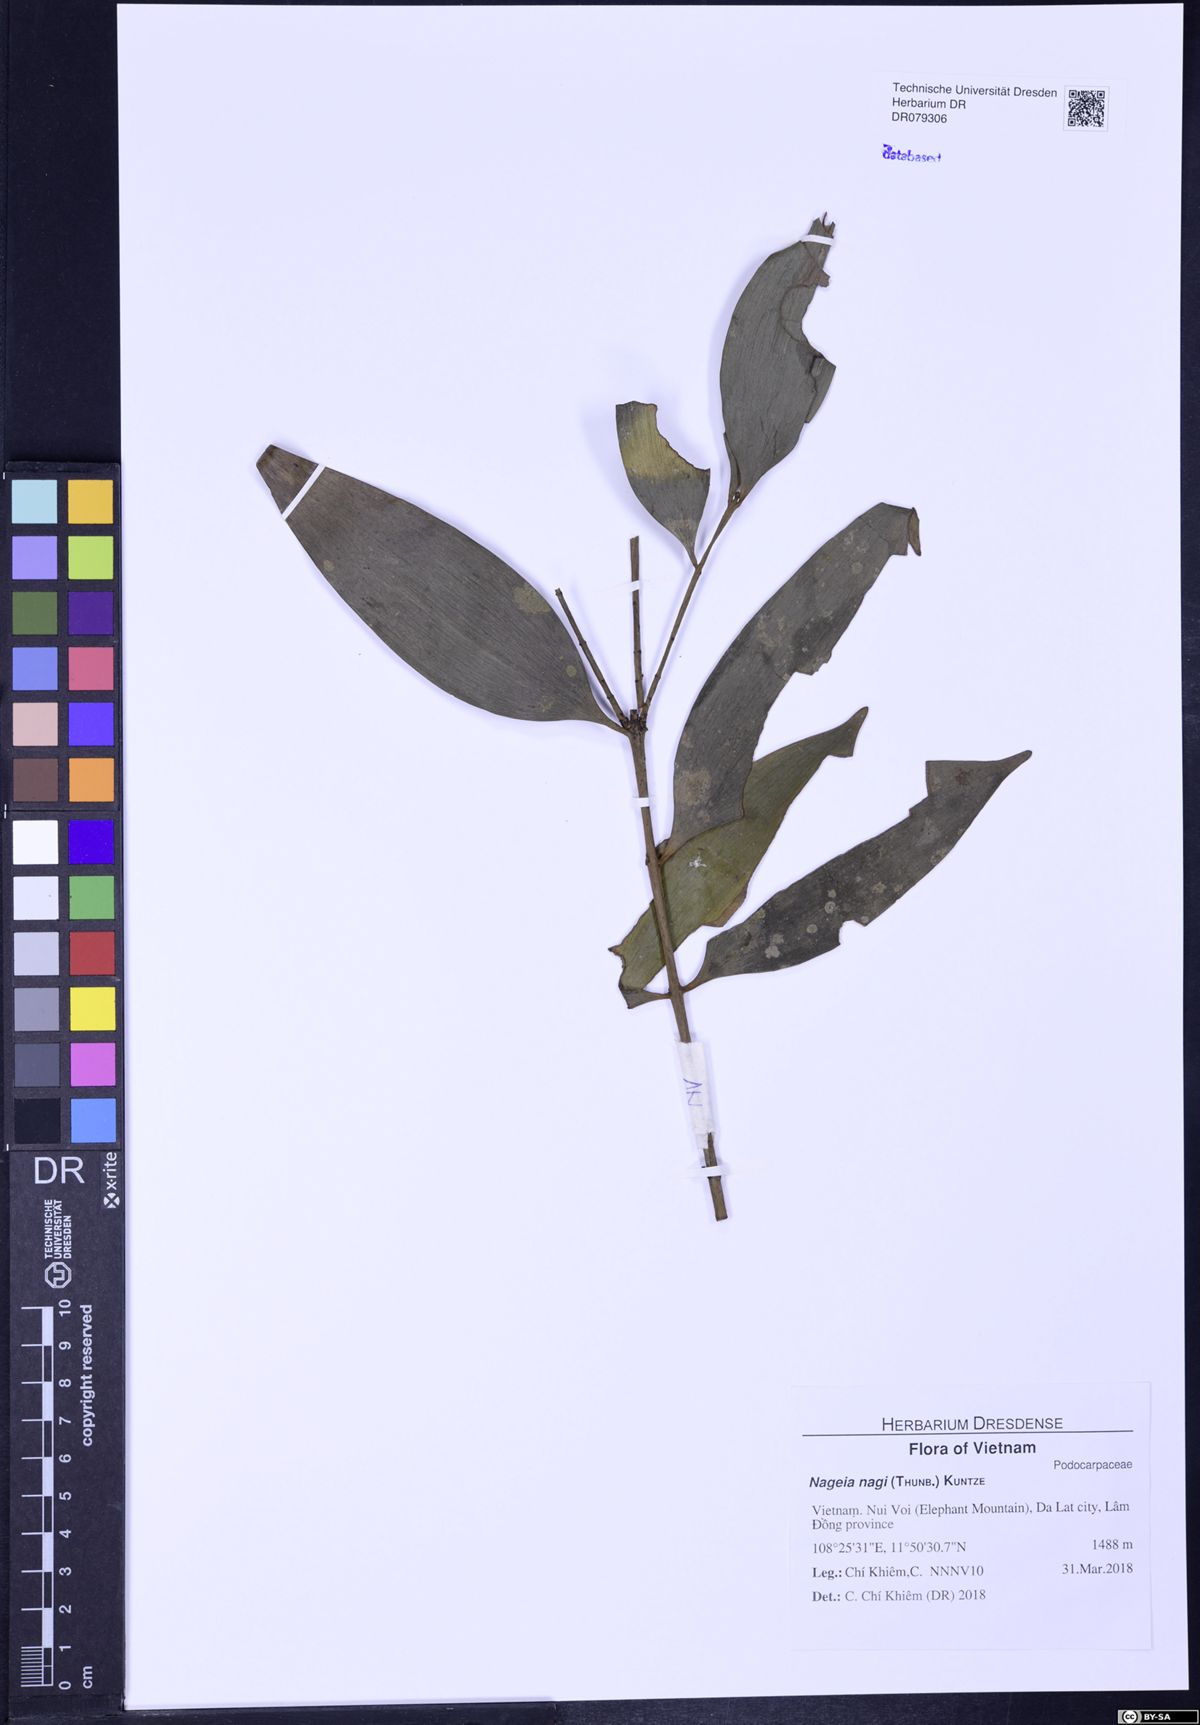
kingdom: Plantae
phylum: Tracheophyta
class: Pinopsida
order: Pinales
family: Podocarpaceae
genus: Nageia
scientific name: Nageia nagi
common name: Kaphal
